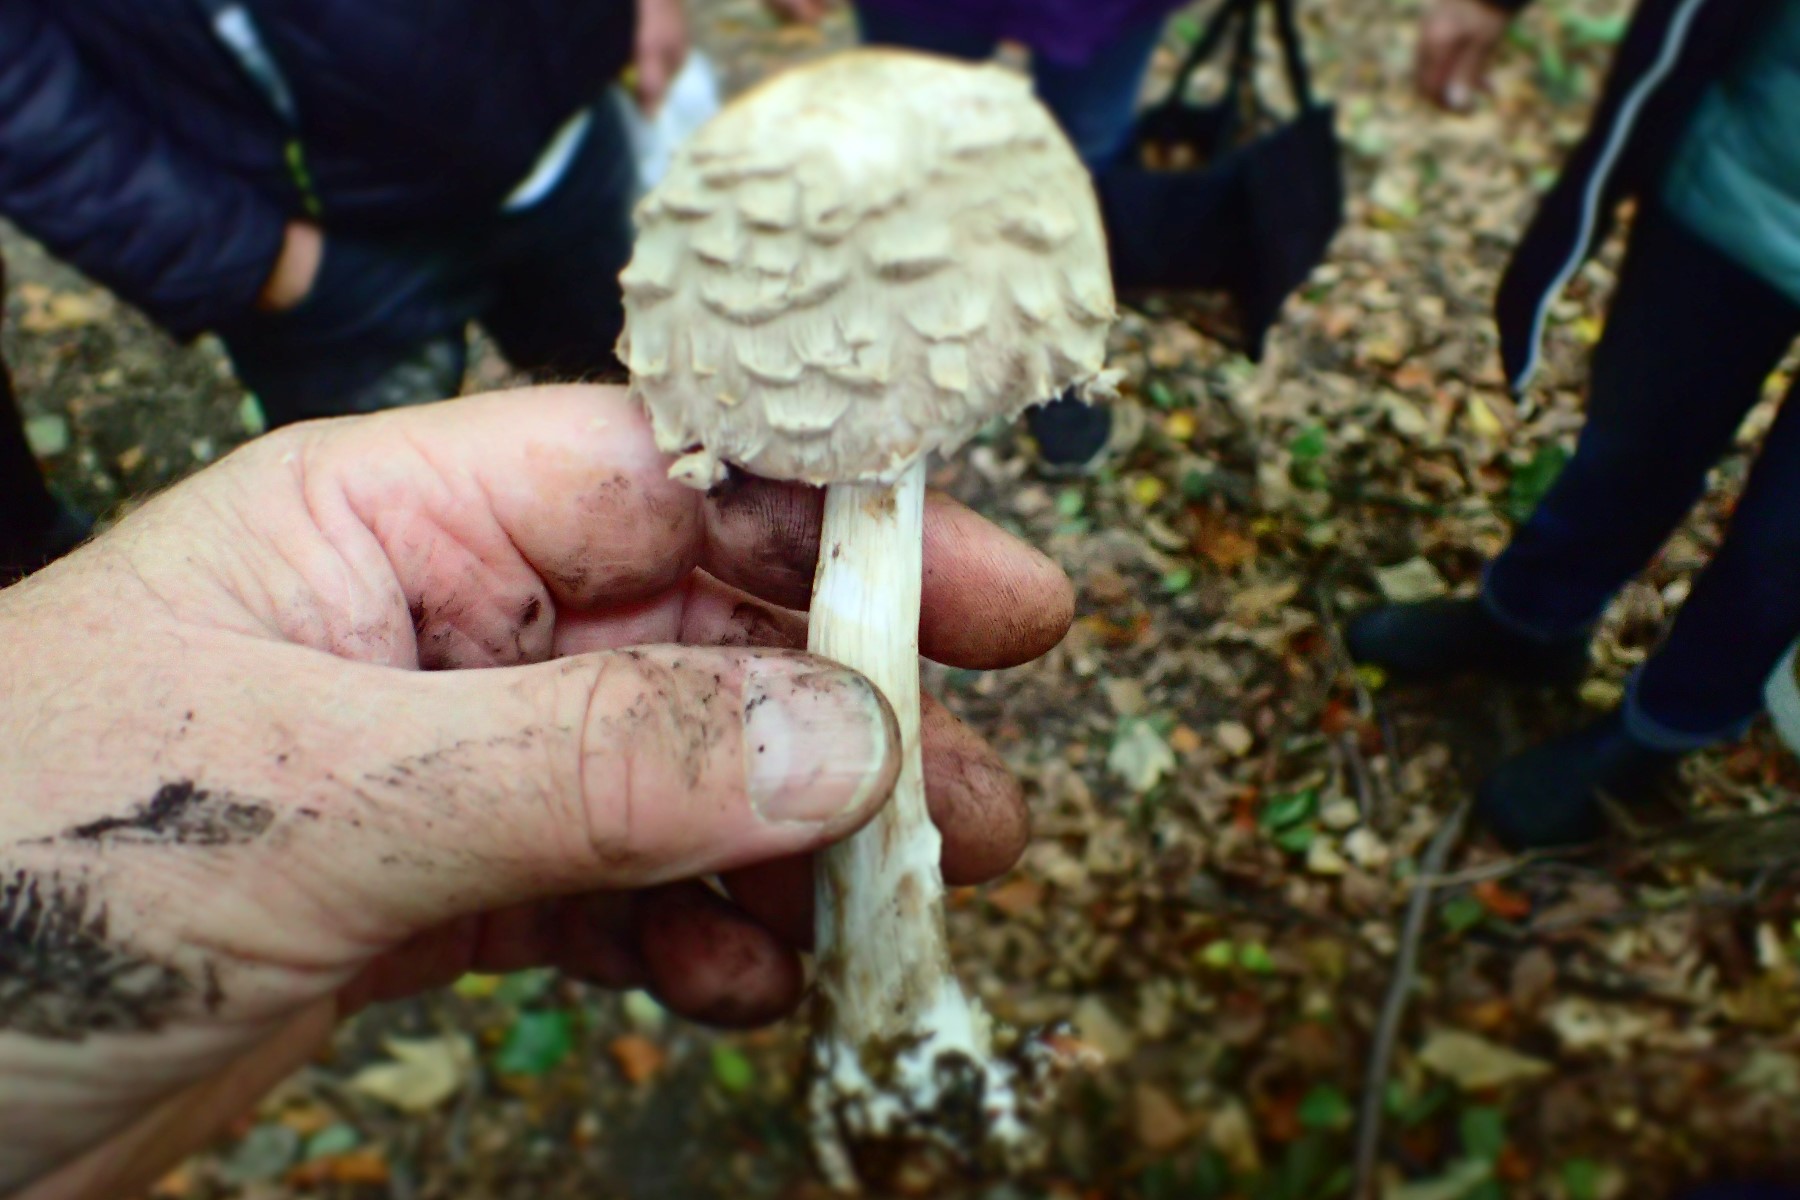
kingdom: Fungi
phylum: Basidiomycota
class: Agaricomycetes
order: Agaricales
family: Agaricaceae
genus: Chlorophyllum
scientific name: Chlorophyllum olivieri
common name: almindelig rabarberhat
